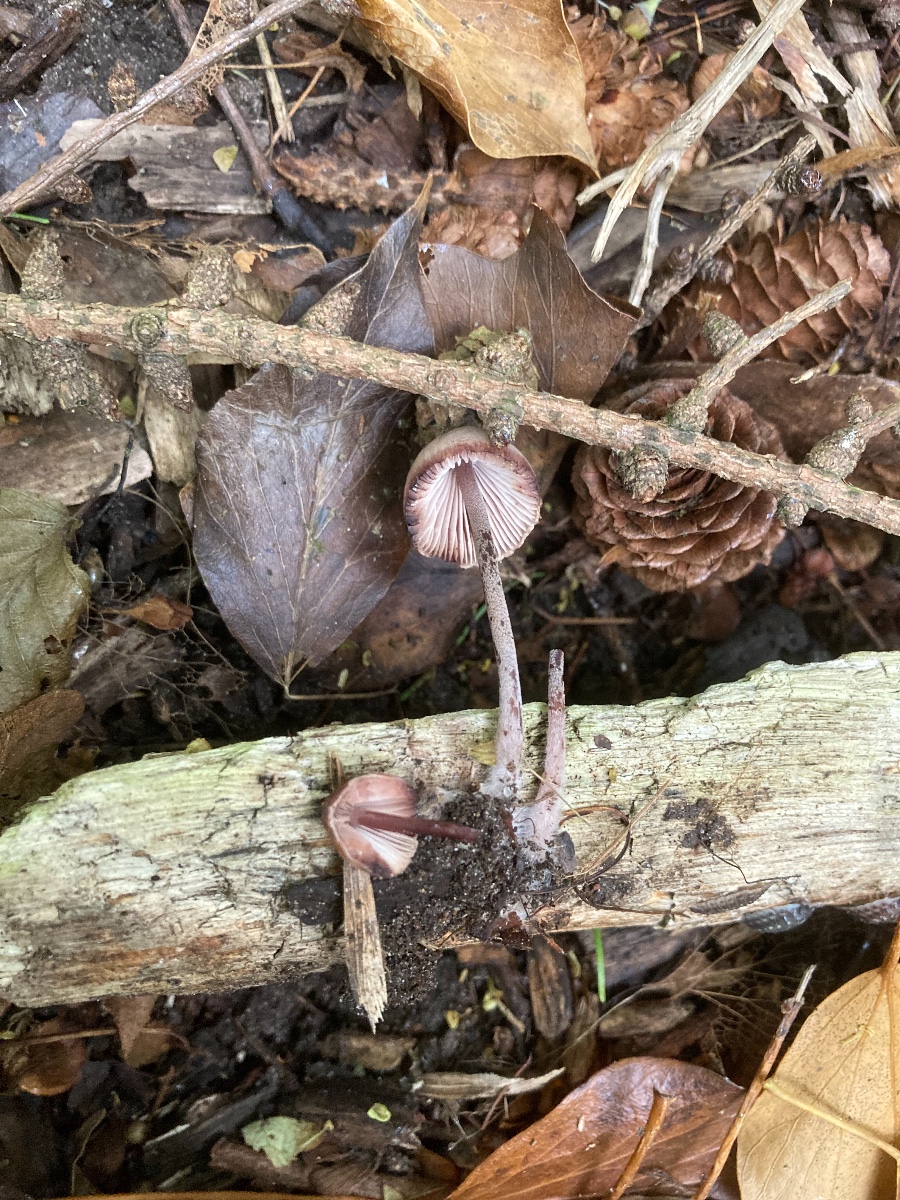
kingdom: Fungi
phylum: Basidiomycota
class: Agaricomycetes
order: Agaricales
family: Mycenaceae
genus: Mycena
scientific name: Mycena haematopus
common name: blødende huesvamp
